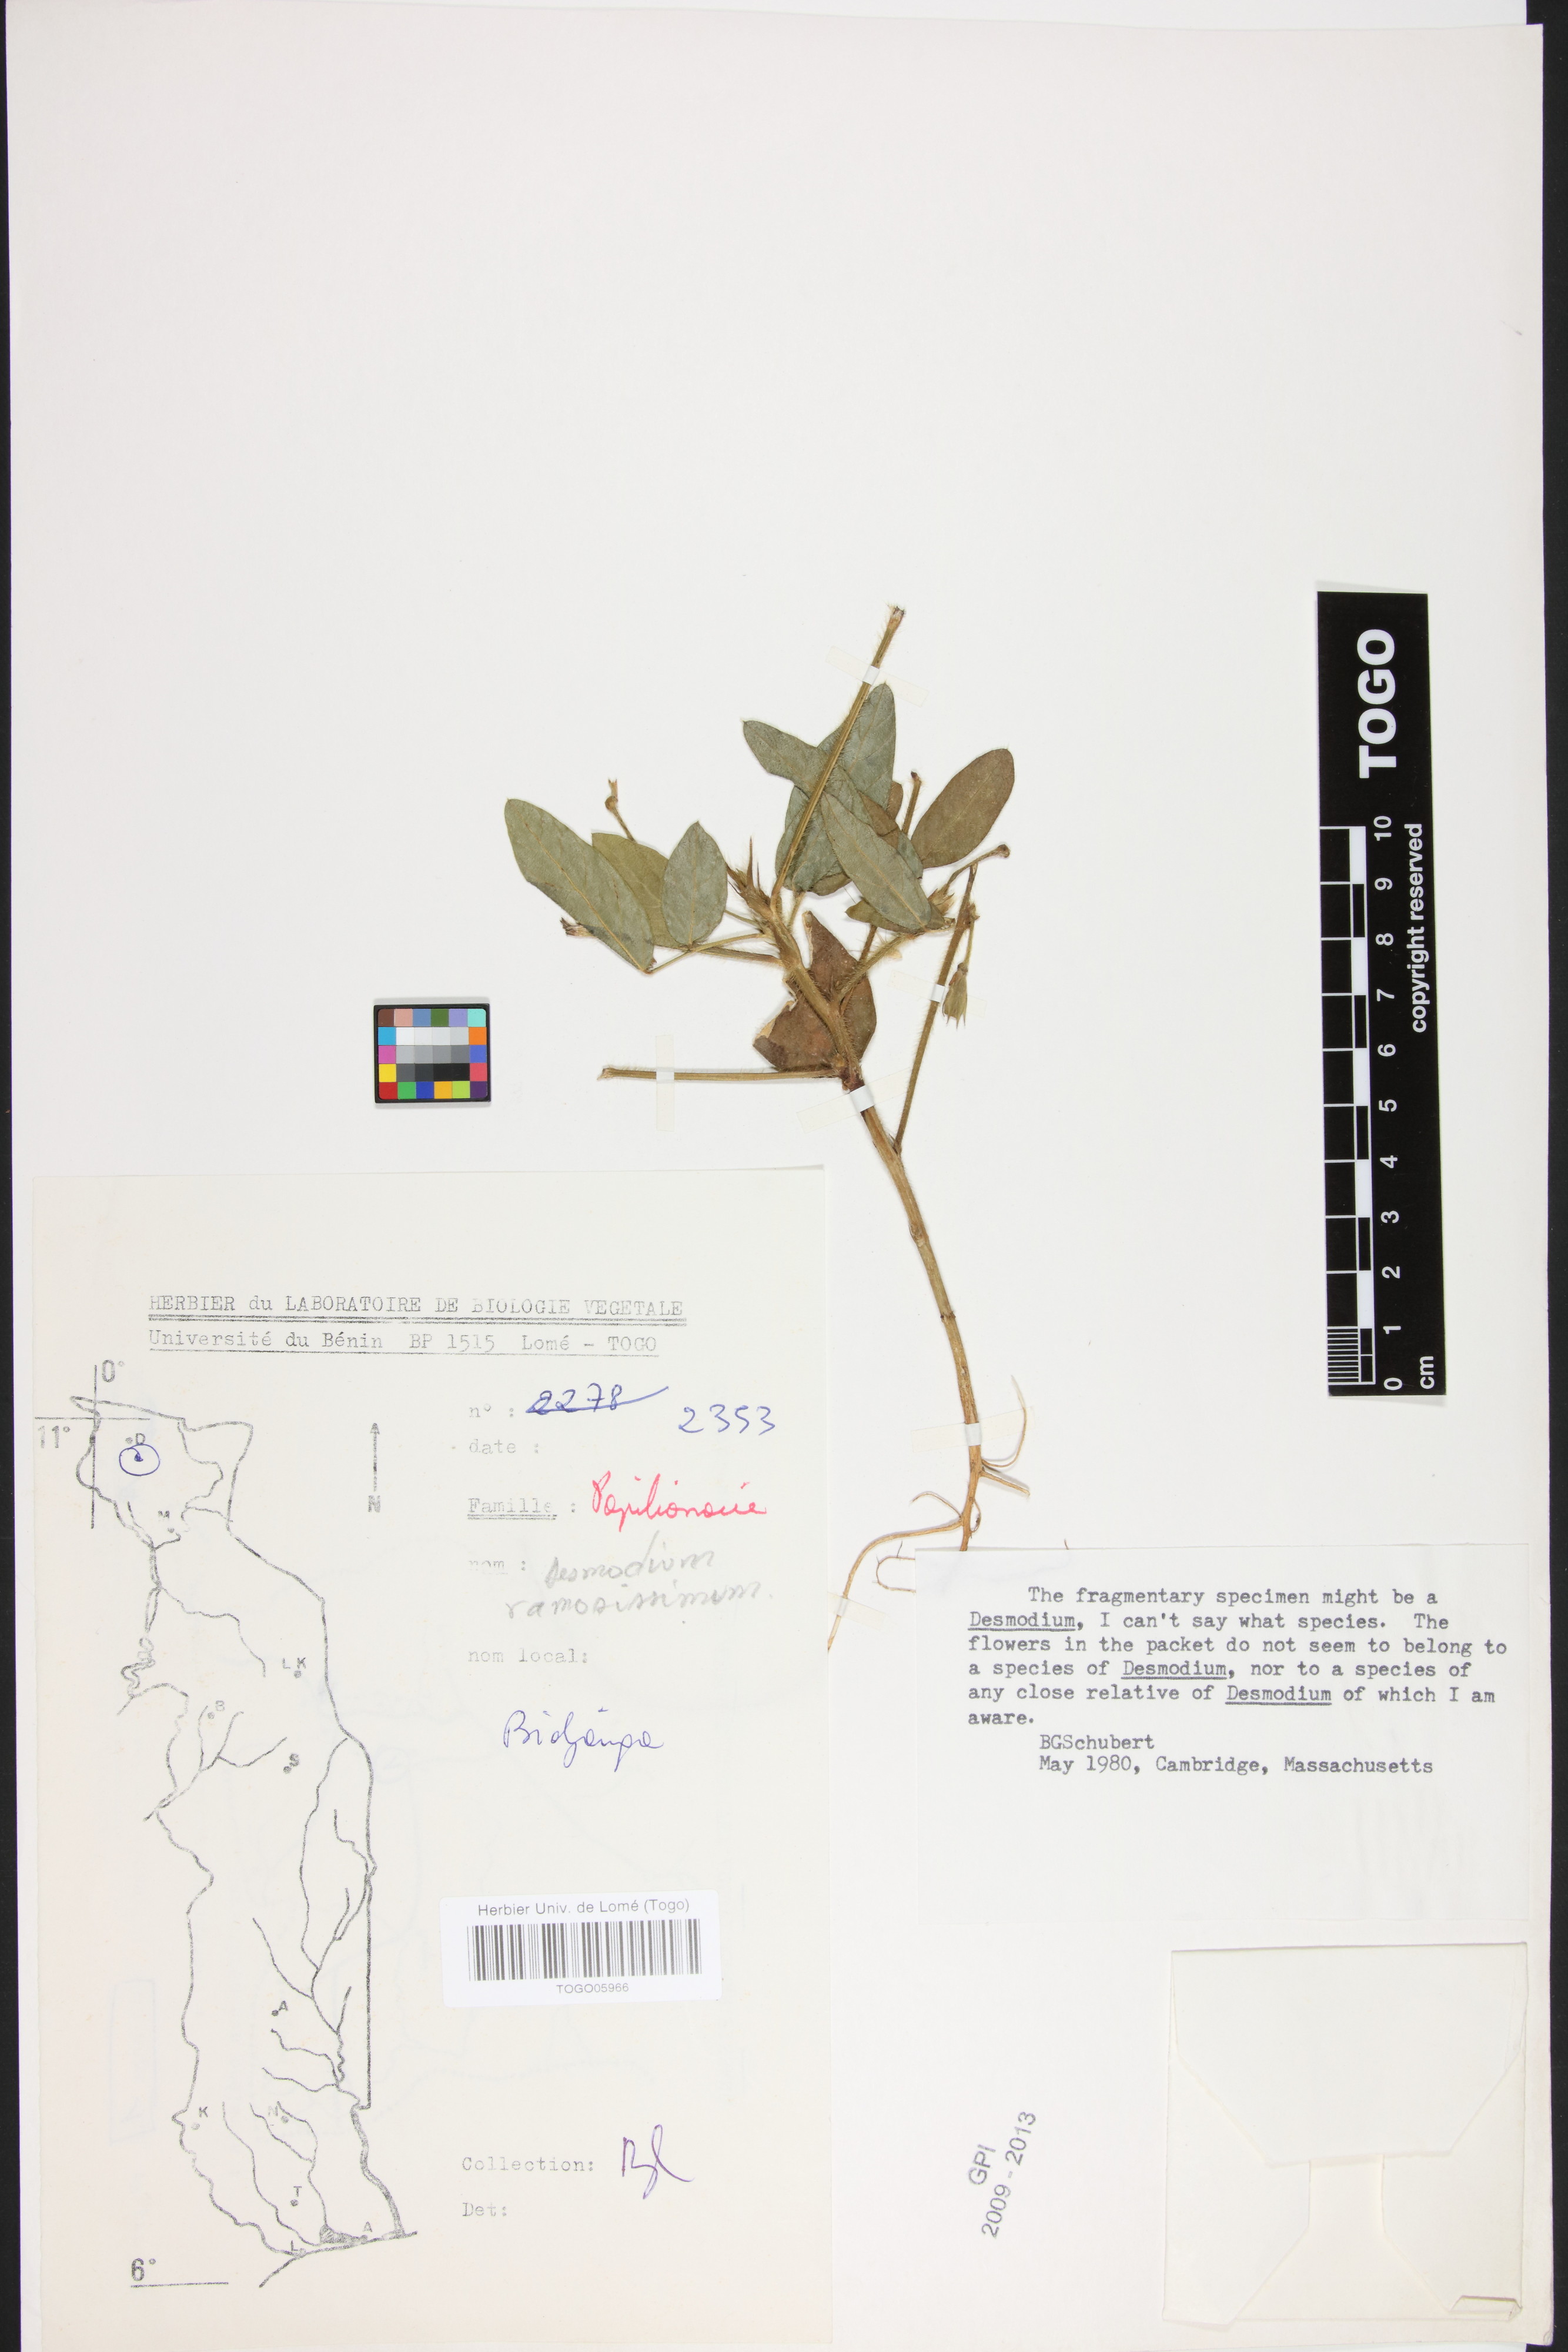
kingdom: Plantae
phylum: Tracheophyta
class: Magnoliopsida
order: Fabales
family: Fabaceae
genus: Grona
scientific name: Grona ramosissima
